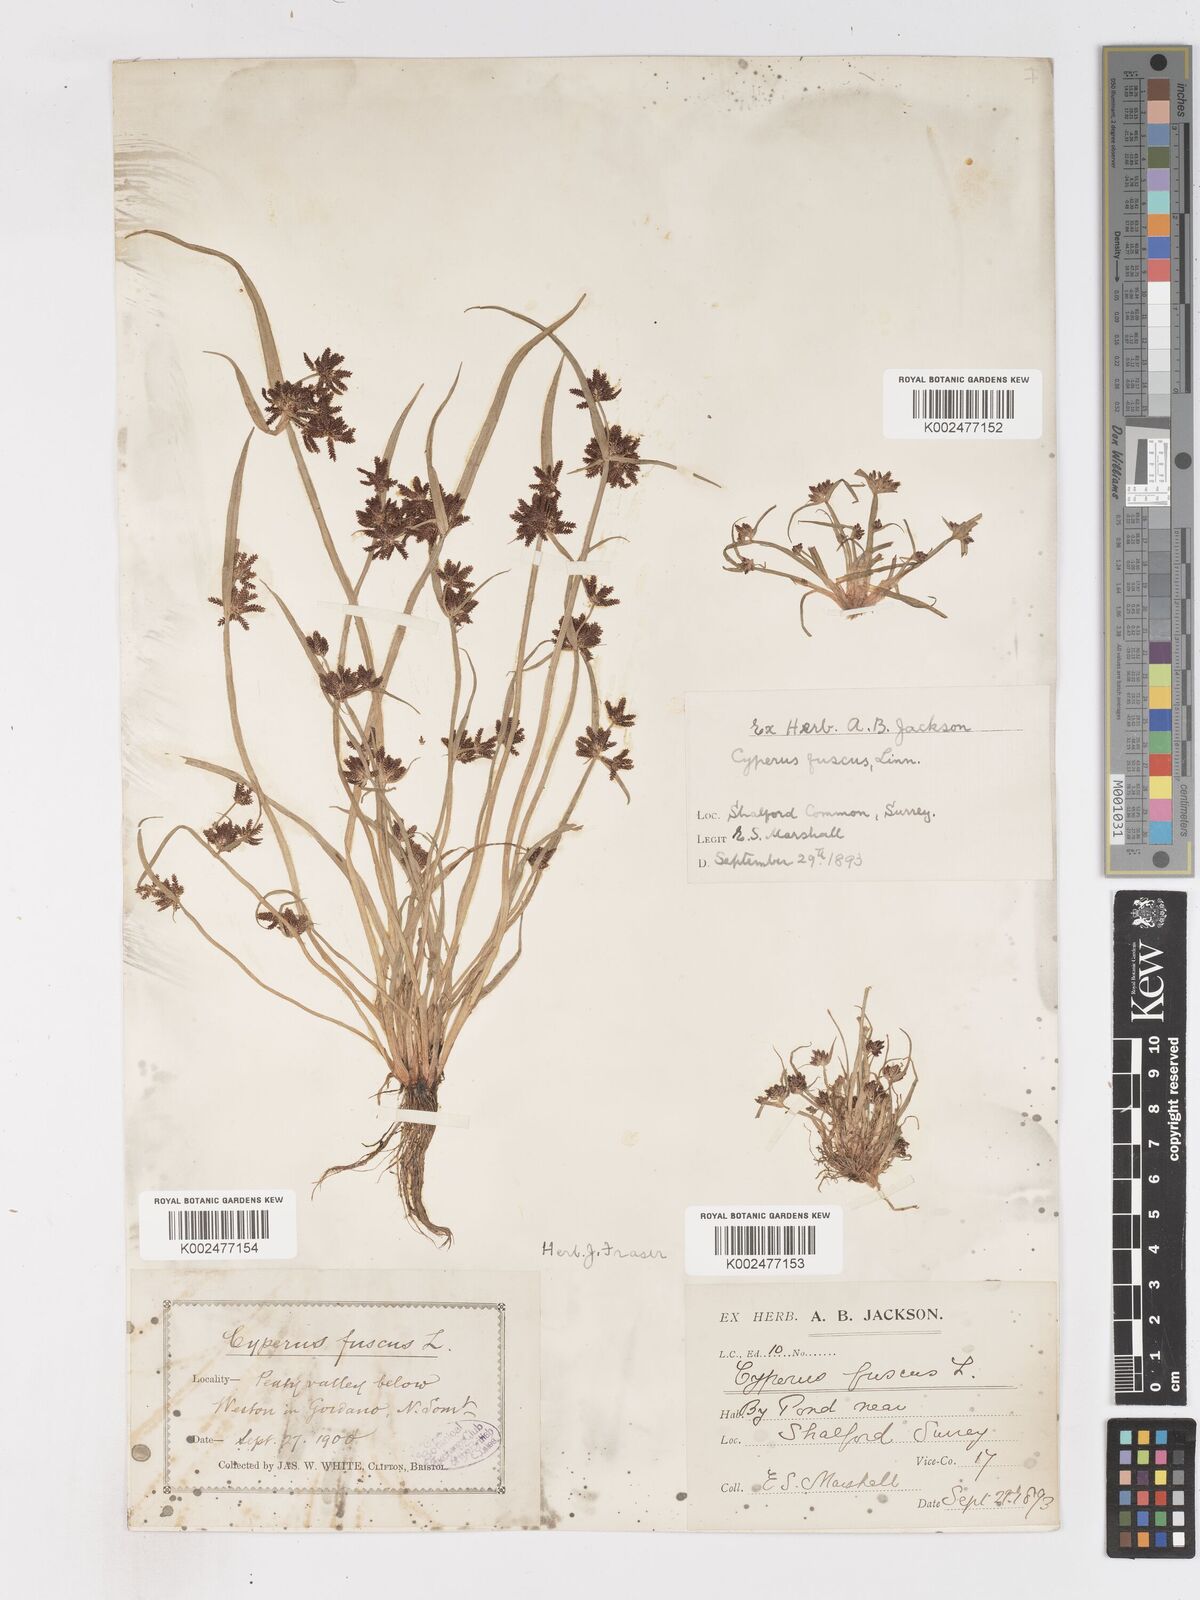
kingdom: Plantae
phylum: Tracheophyta
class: Liliopsida
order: Poales
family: Cyperaceae
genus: Cyperus
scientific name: Cyperus fuscus
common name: Brown galingale
